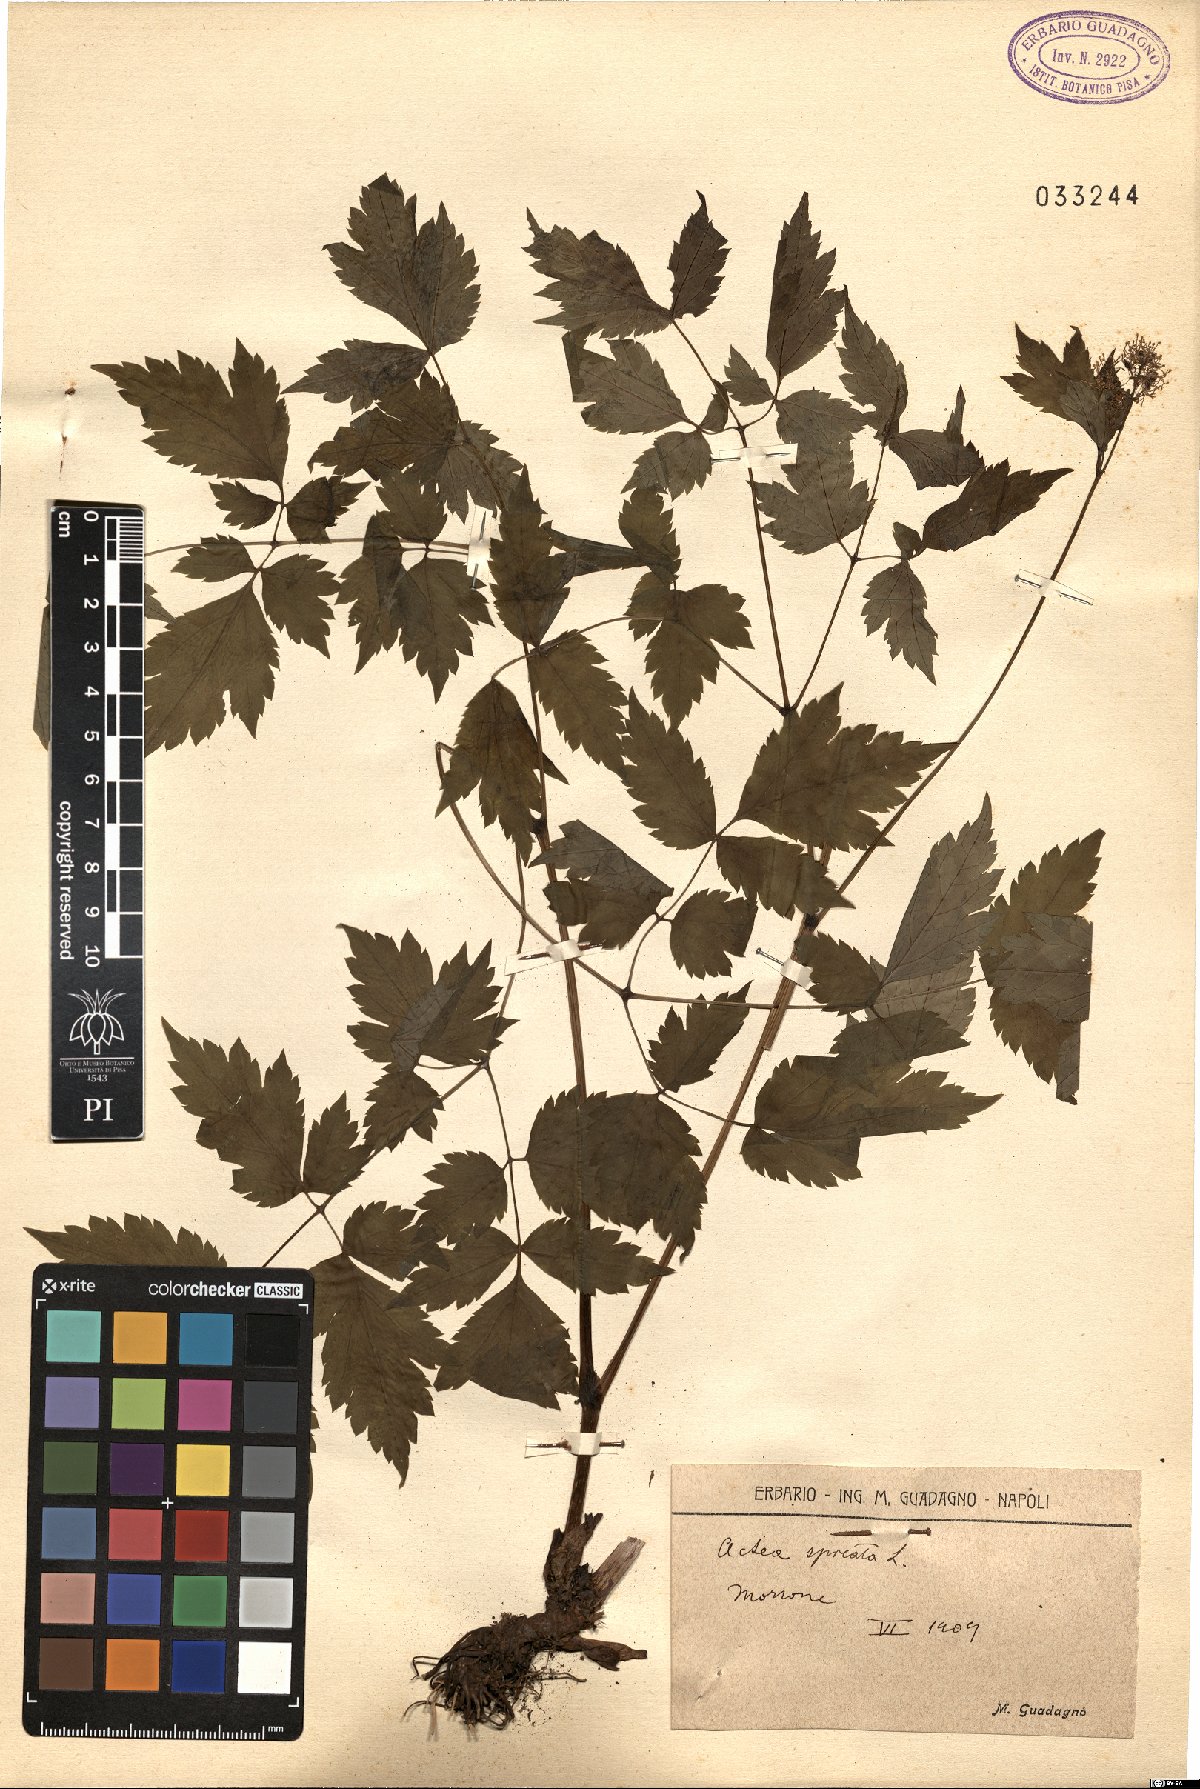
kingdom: Plantae
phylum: Tracheophyta
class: Magnoliopsida
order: Ranunculales
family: Ranunculaceae
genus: Actaea
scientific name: Actaea spicata
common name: Baneberry
